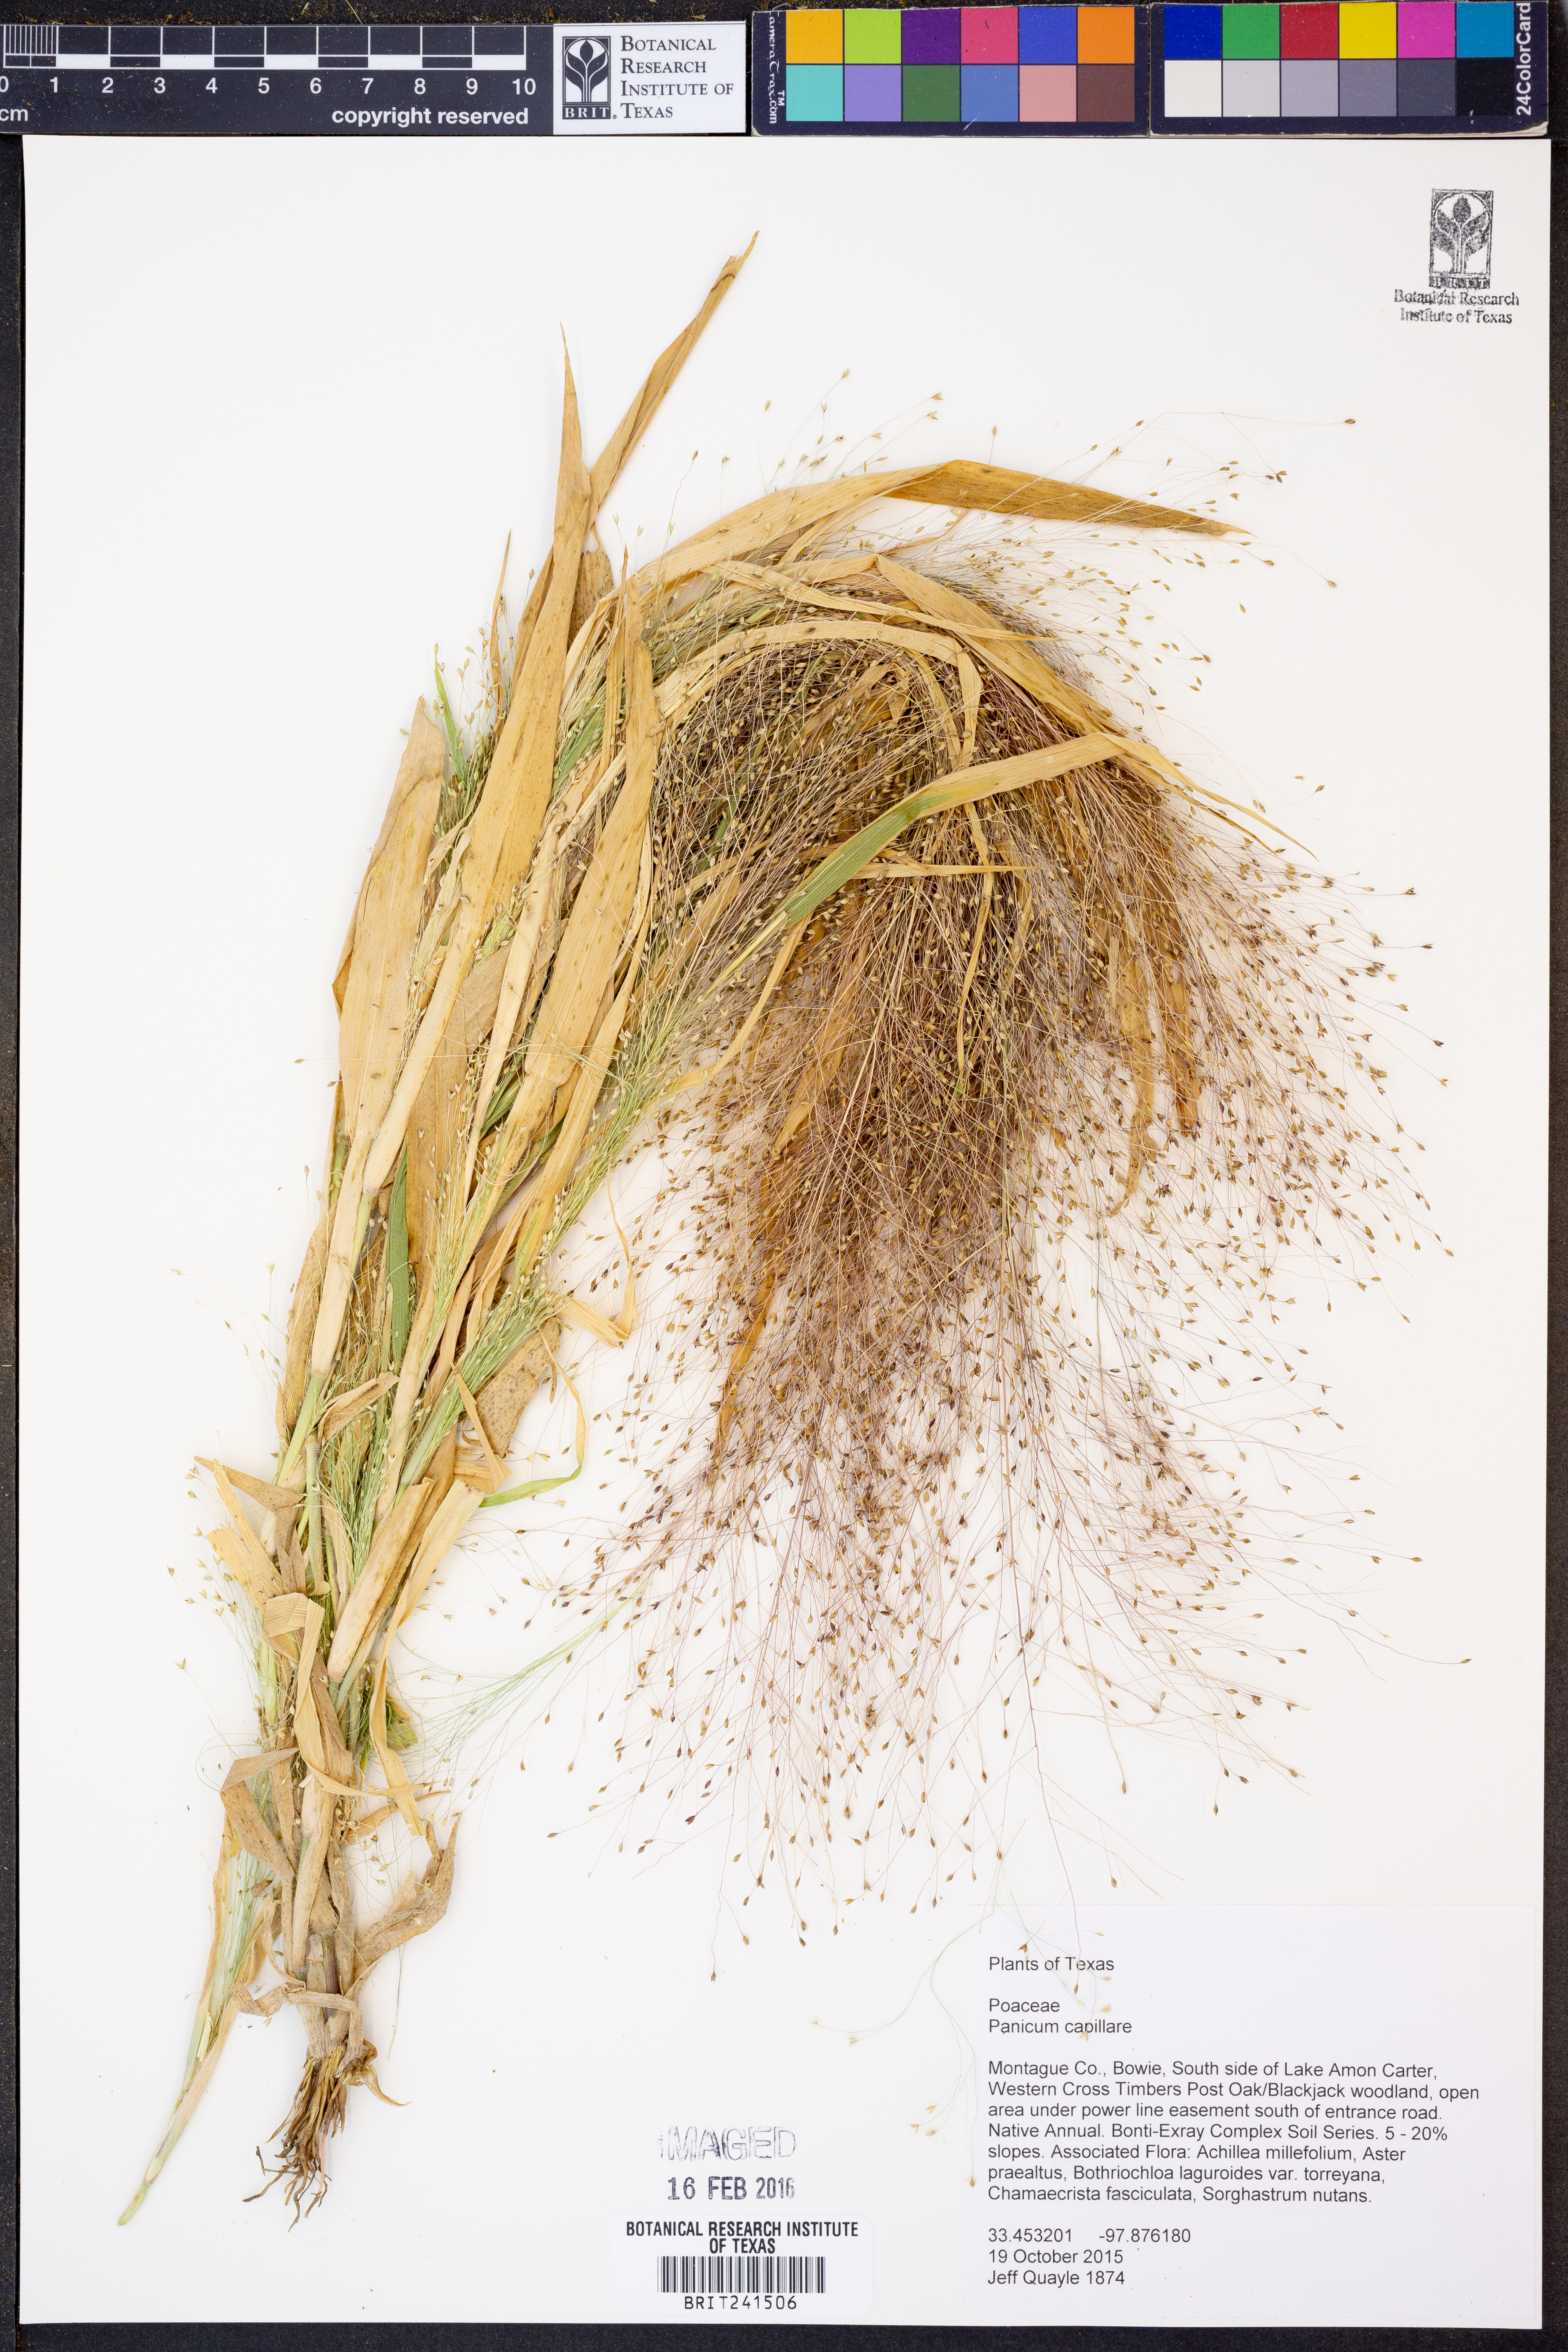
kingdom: Plantae
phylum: Tracheophyta
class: Liliopsida
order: Poales
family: Poaceae
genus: Panicum
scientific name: Panicum capillare
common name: Witch-grass
